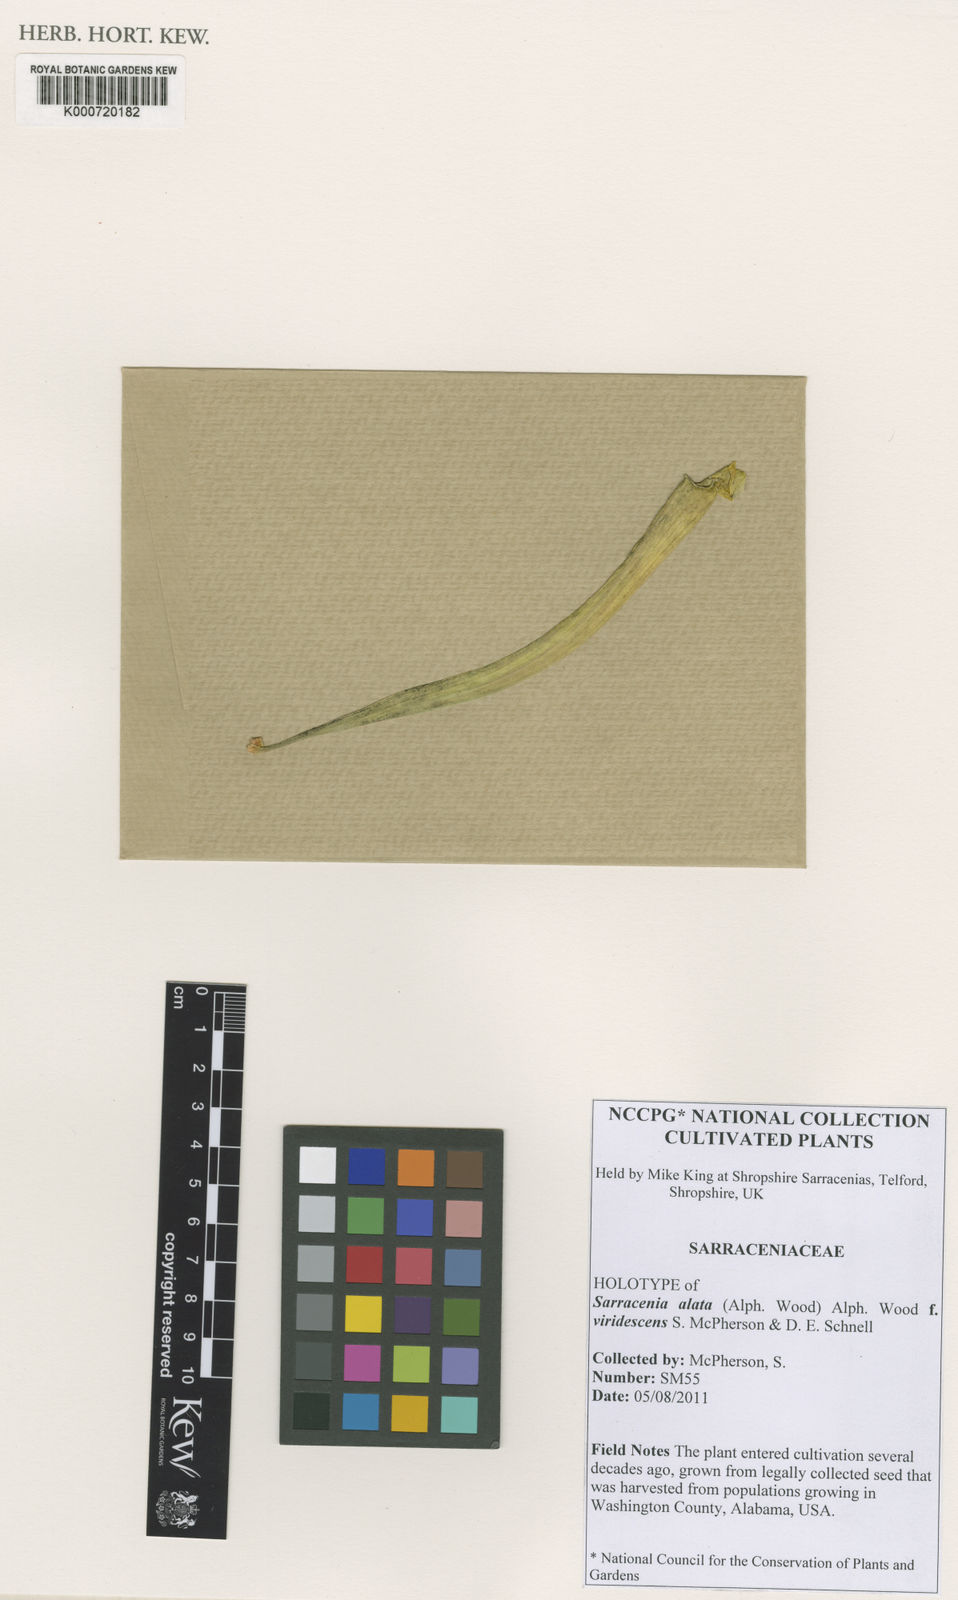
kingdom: Plantae
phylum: Tracheophyta
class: Magnoliopsida
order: Ericales
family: Sarraceniaceae
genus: Sarracenia
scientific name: Sarracenia alata
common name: Yellow trumpets
